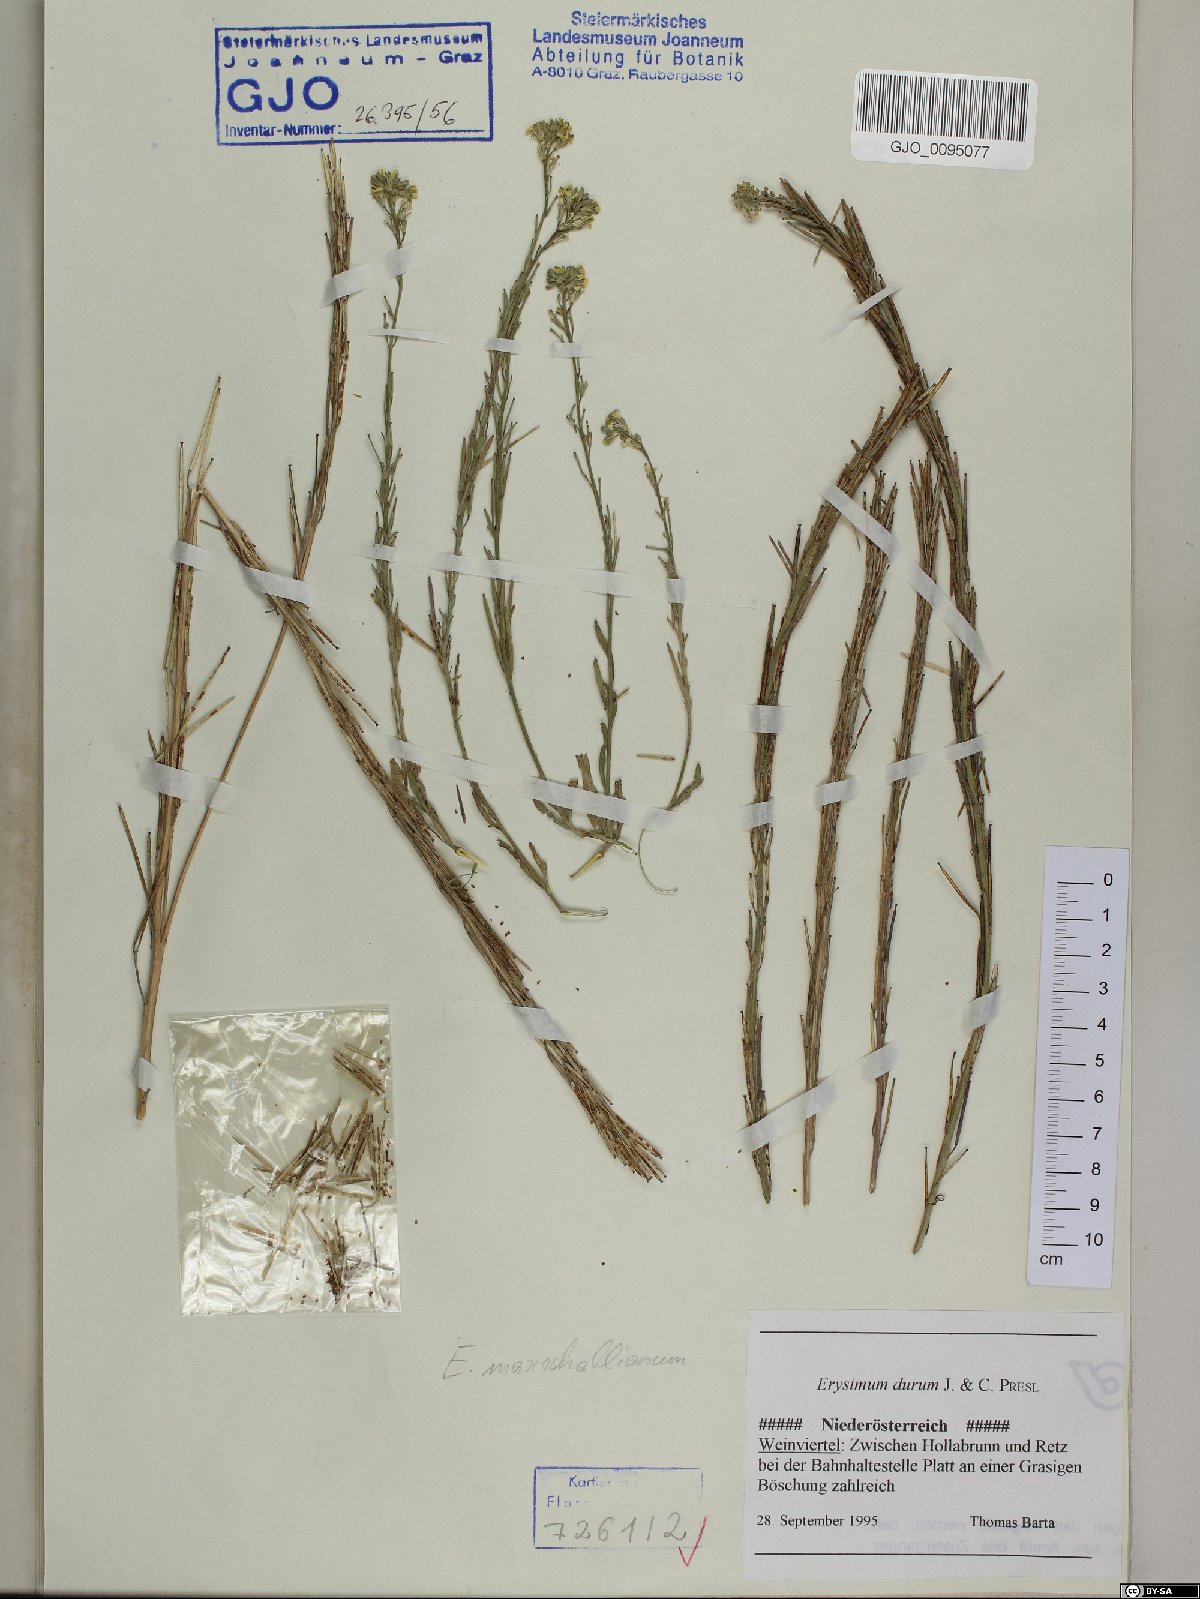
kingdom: Plantae
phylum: Tracheophyta
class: Magnoliopsida
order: Brassicales
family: Brassicaceae
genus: Erysimum
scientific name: Erysimum marschallianum
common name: Hard wallflower
